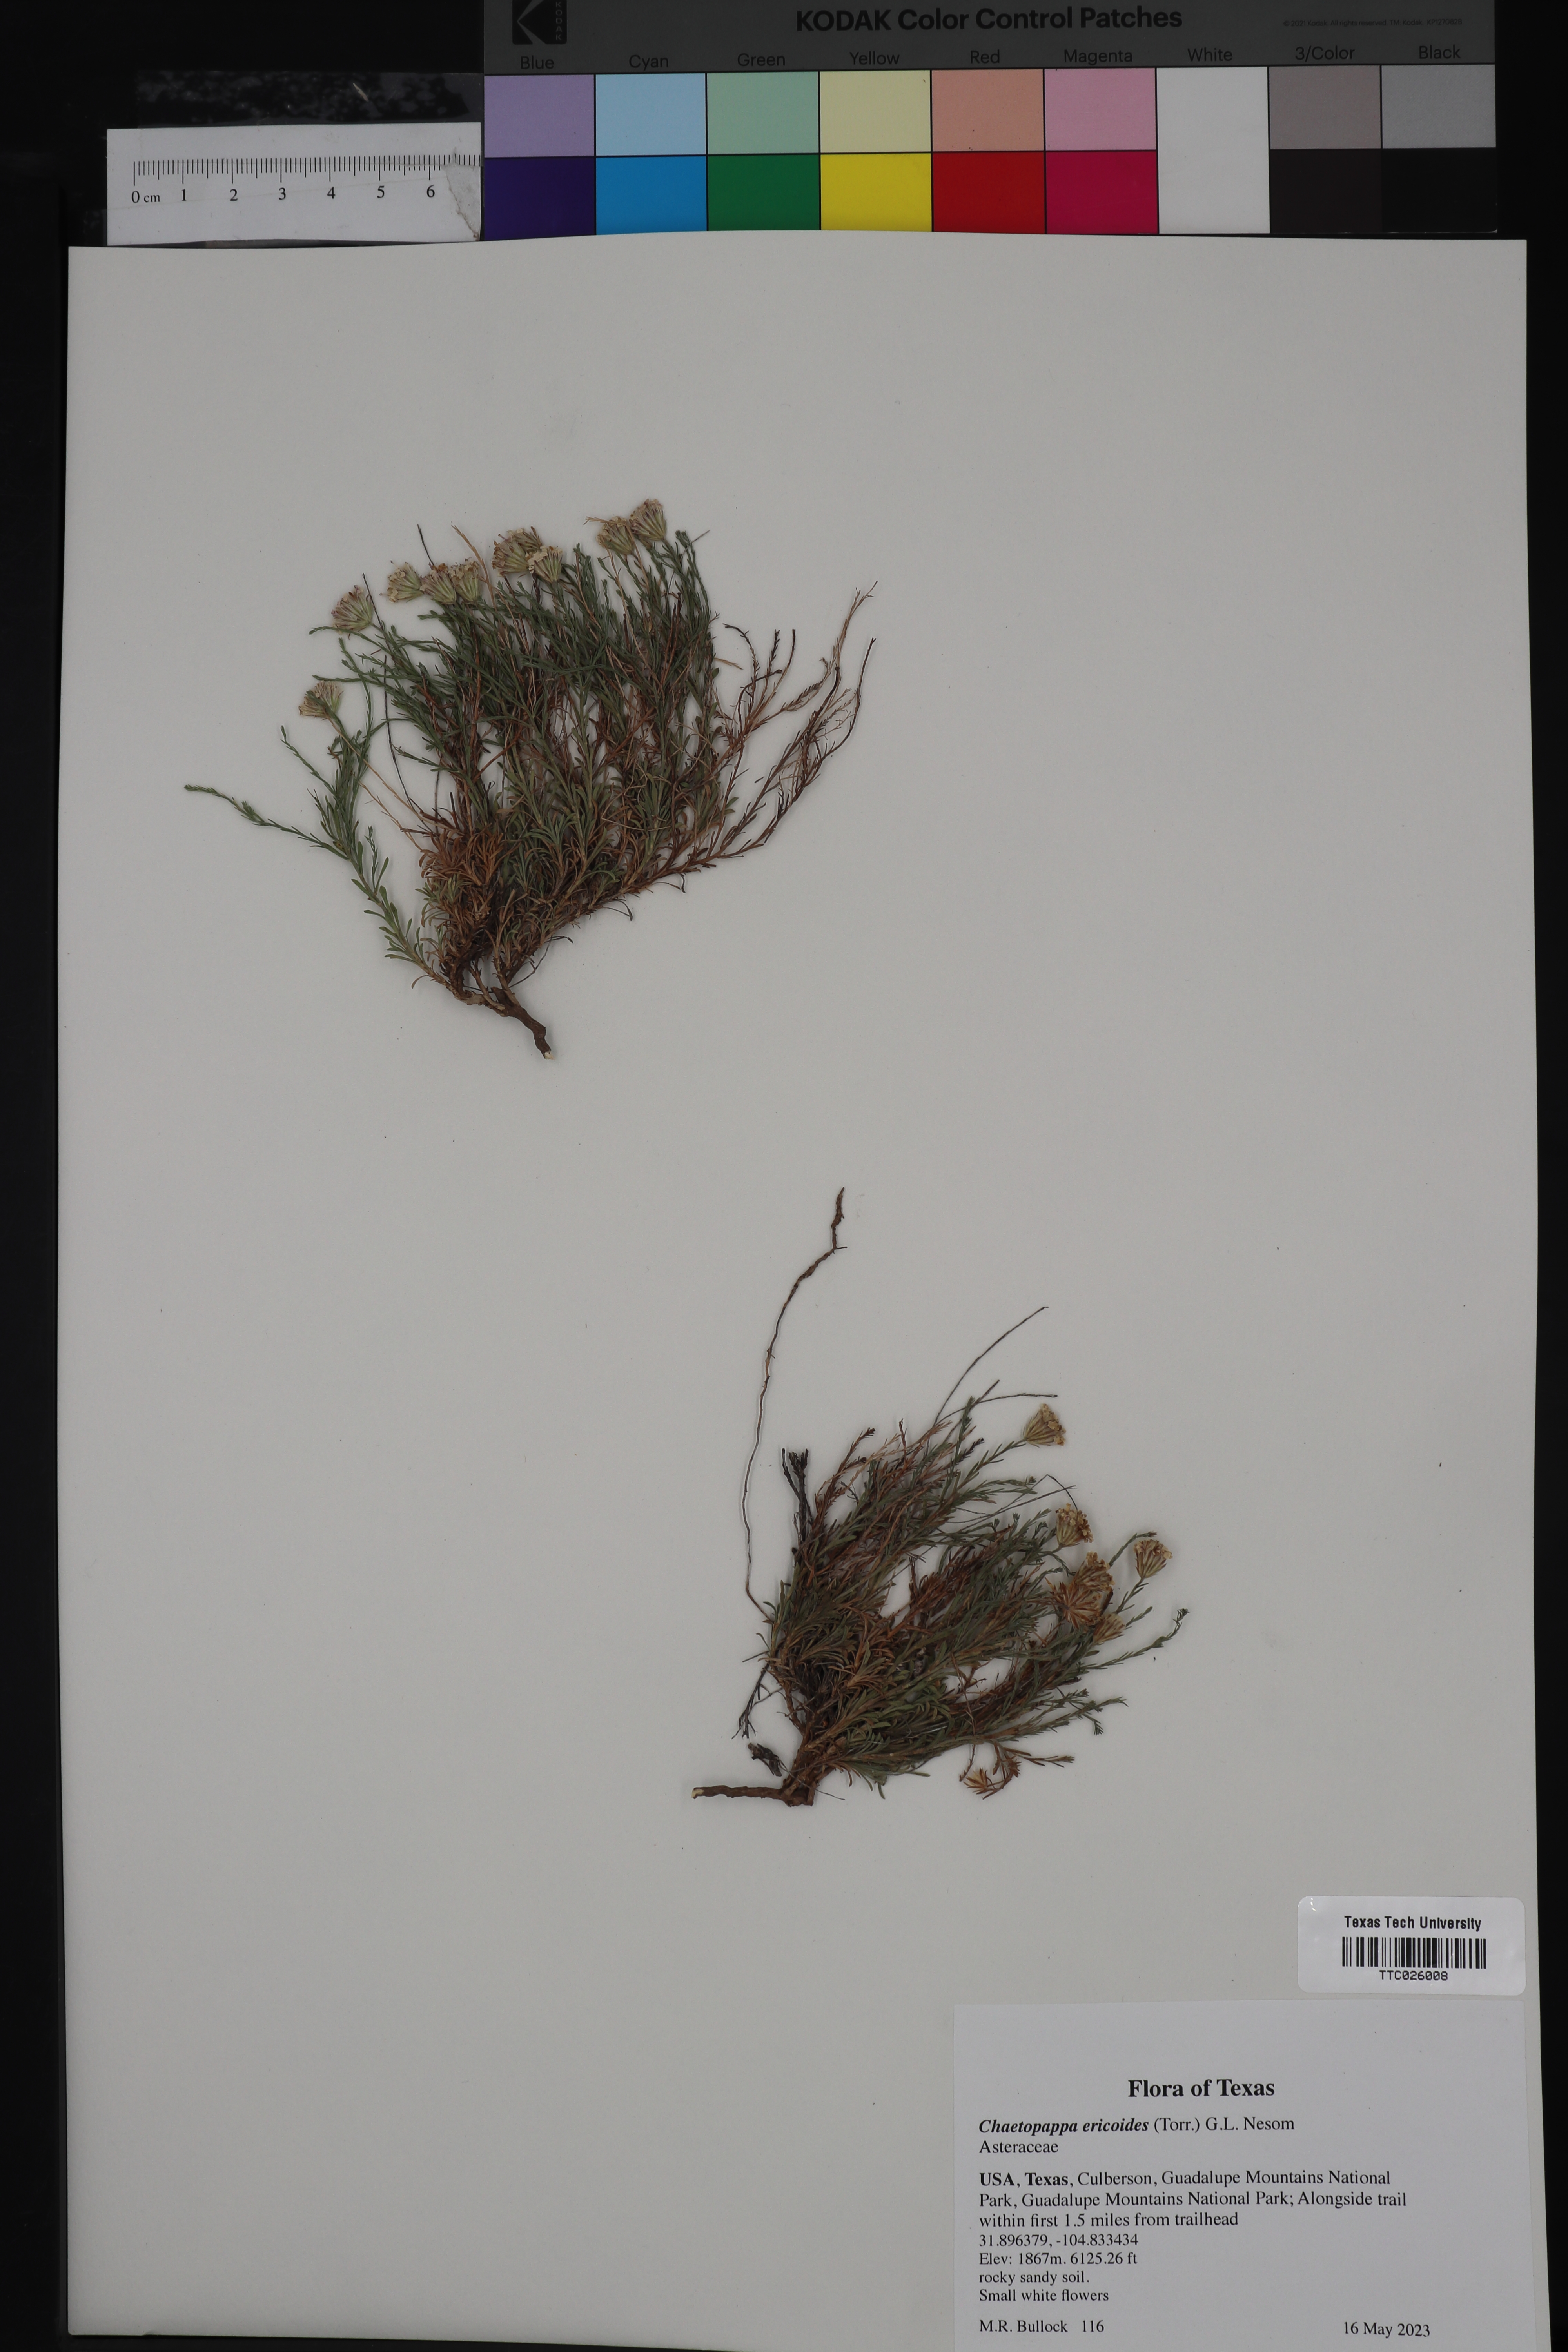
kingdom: Plantae
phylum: Tracheophyta
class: Magnoliopsida
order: Asterales
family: Asteraceae
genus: Chaetopappa
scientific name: Chaetopappa ericoides
